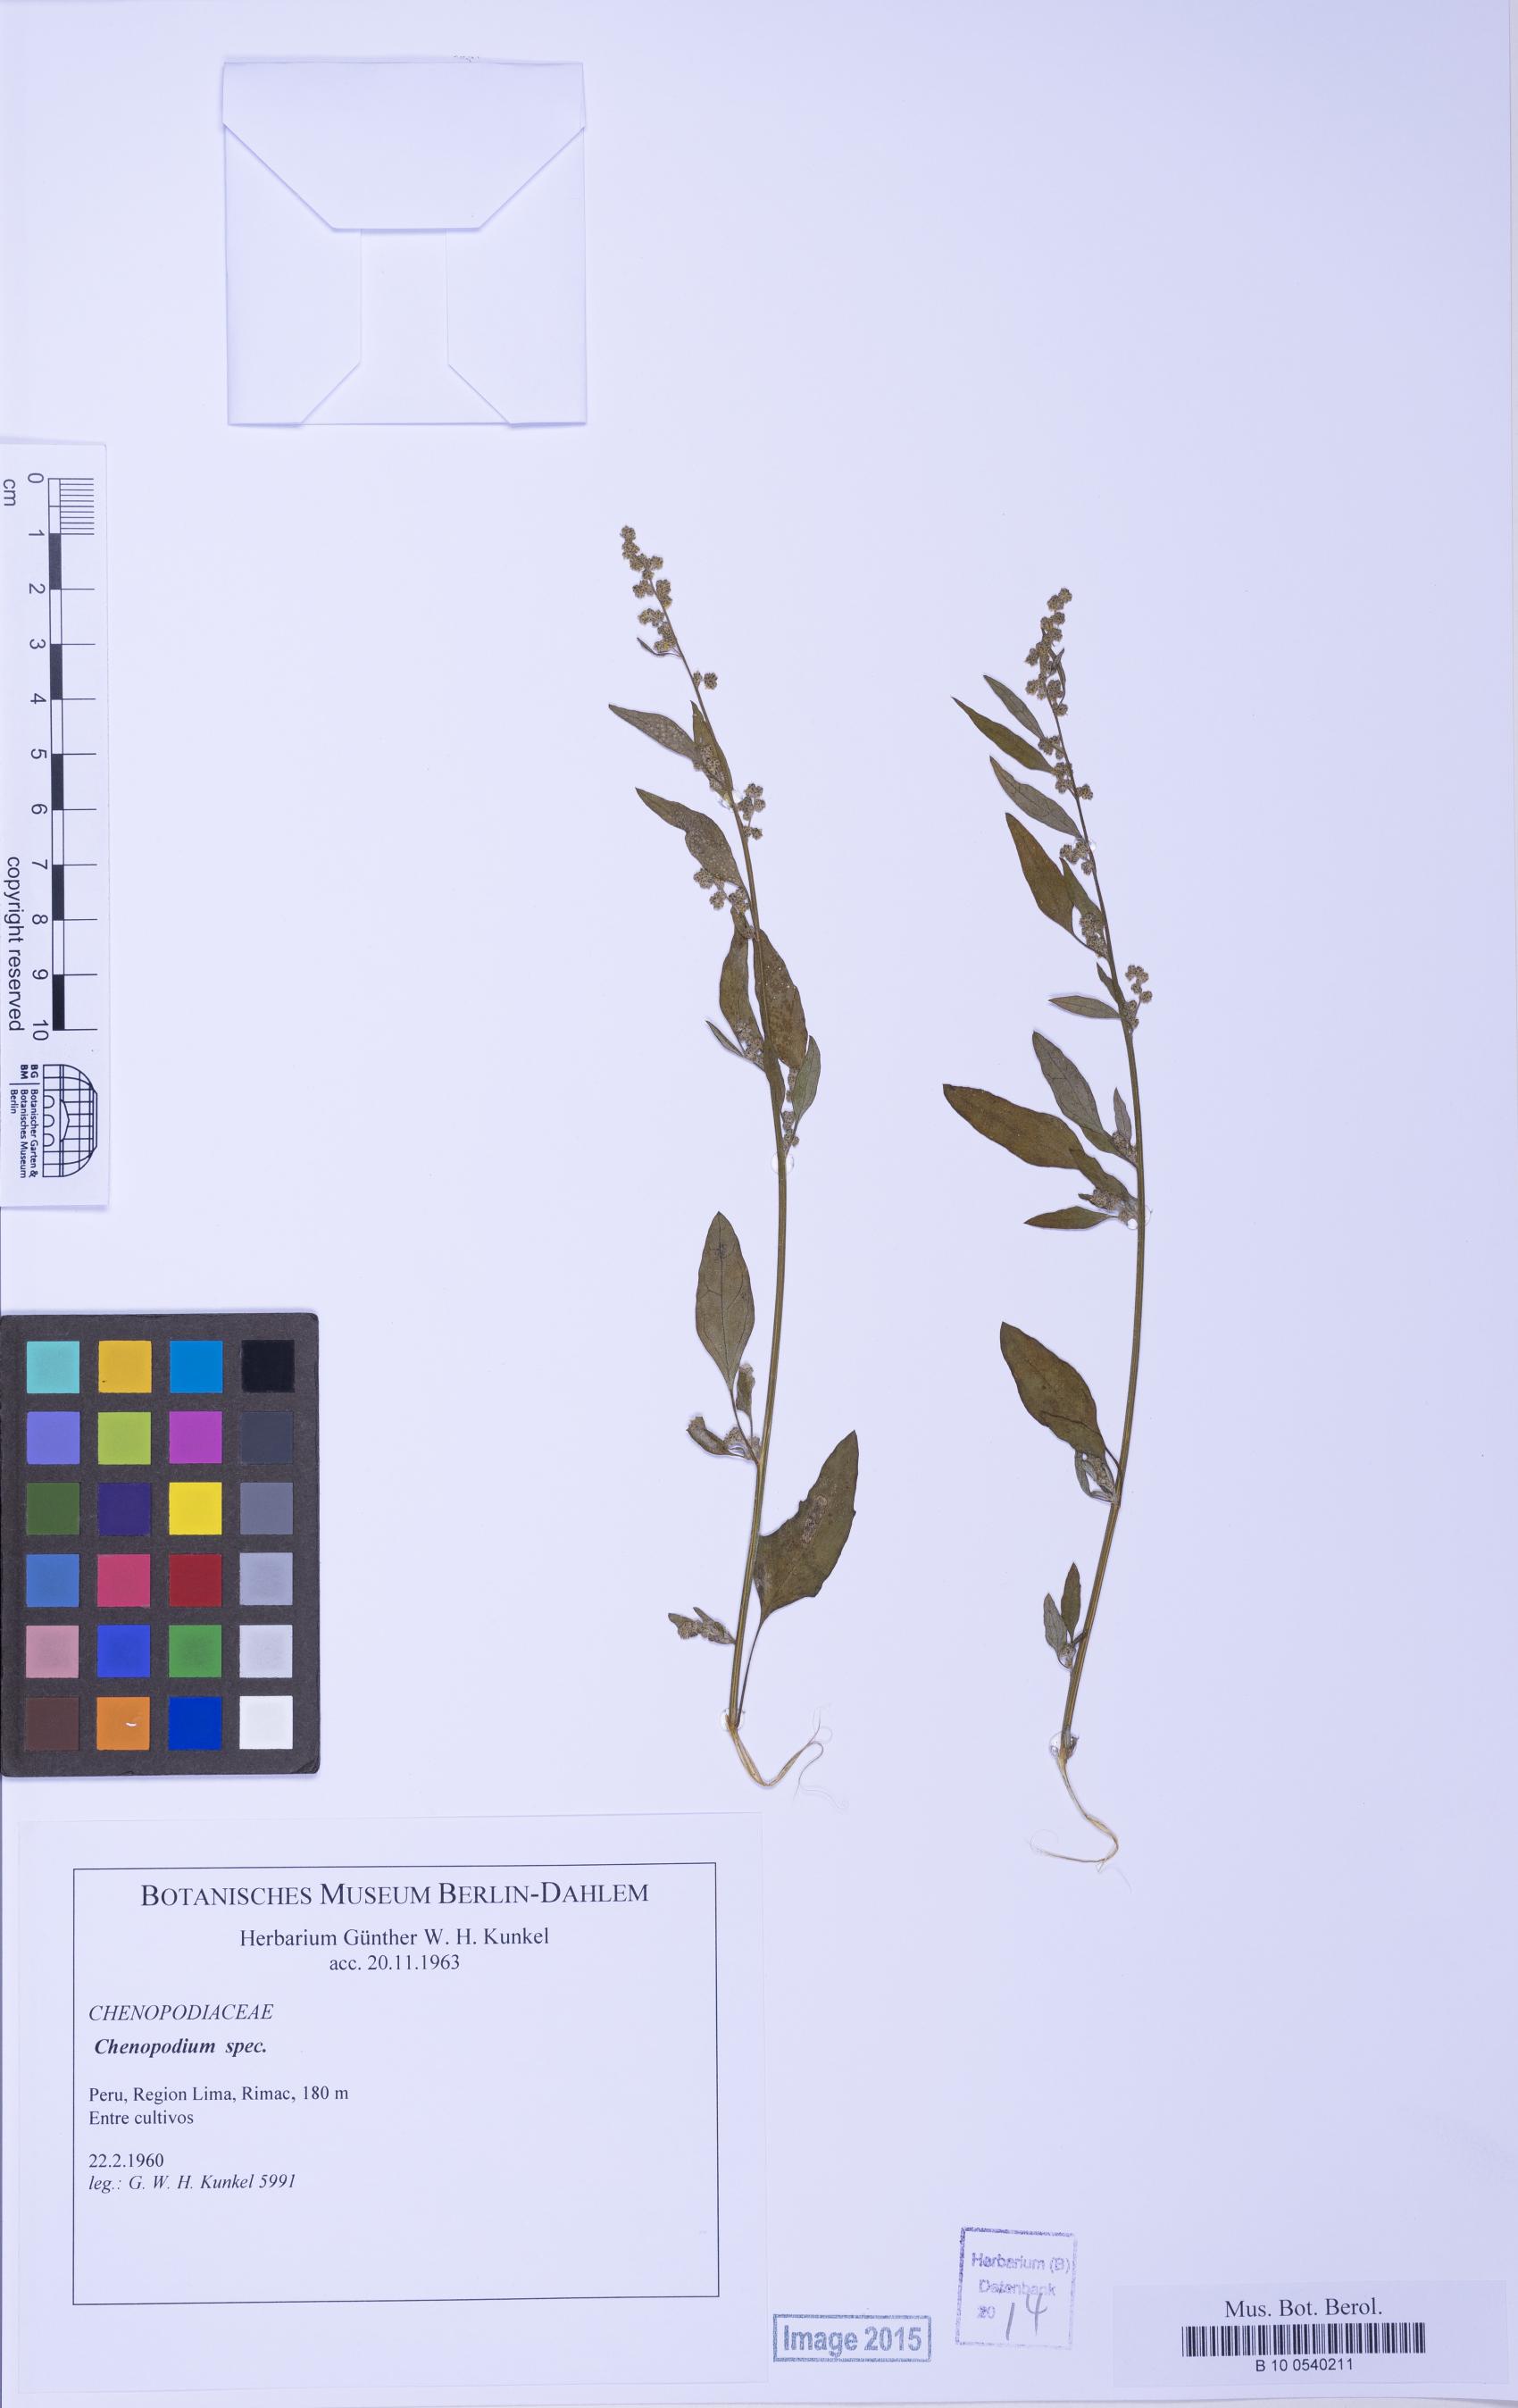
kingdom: Plantae
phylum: Tracheophyta
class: Magnoliopsida
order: Caryophyllales
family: Amaranthaceae
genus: Chenopodium
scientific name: Chenopodium
